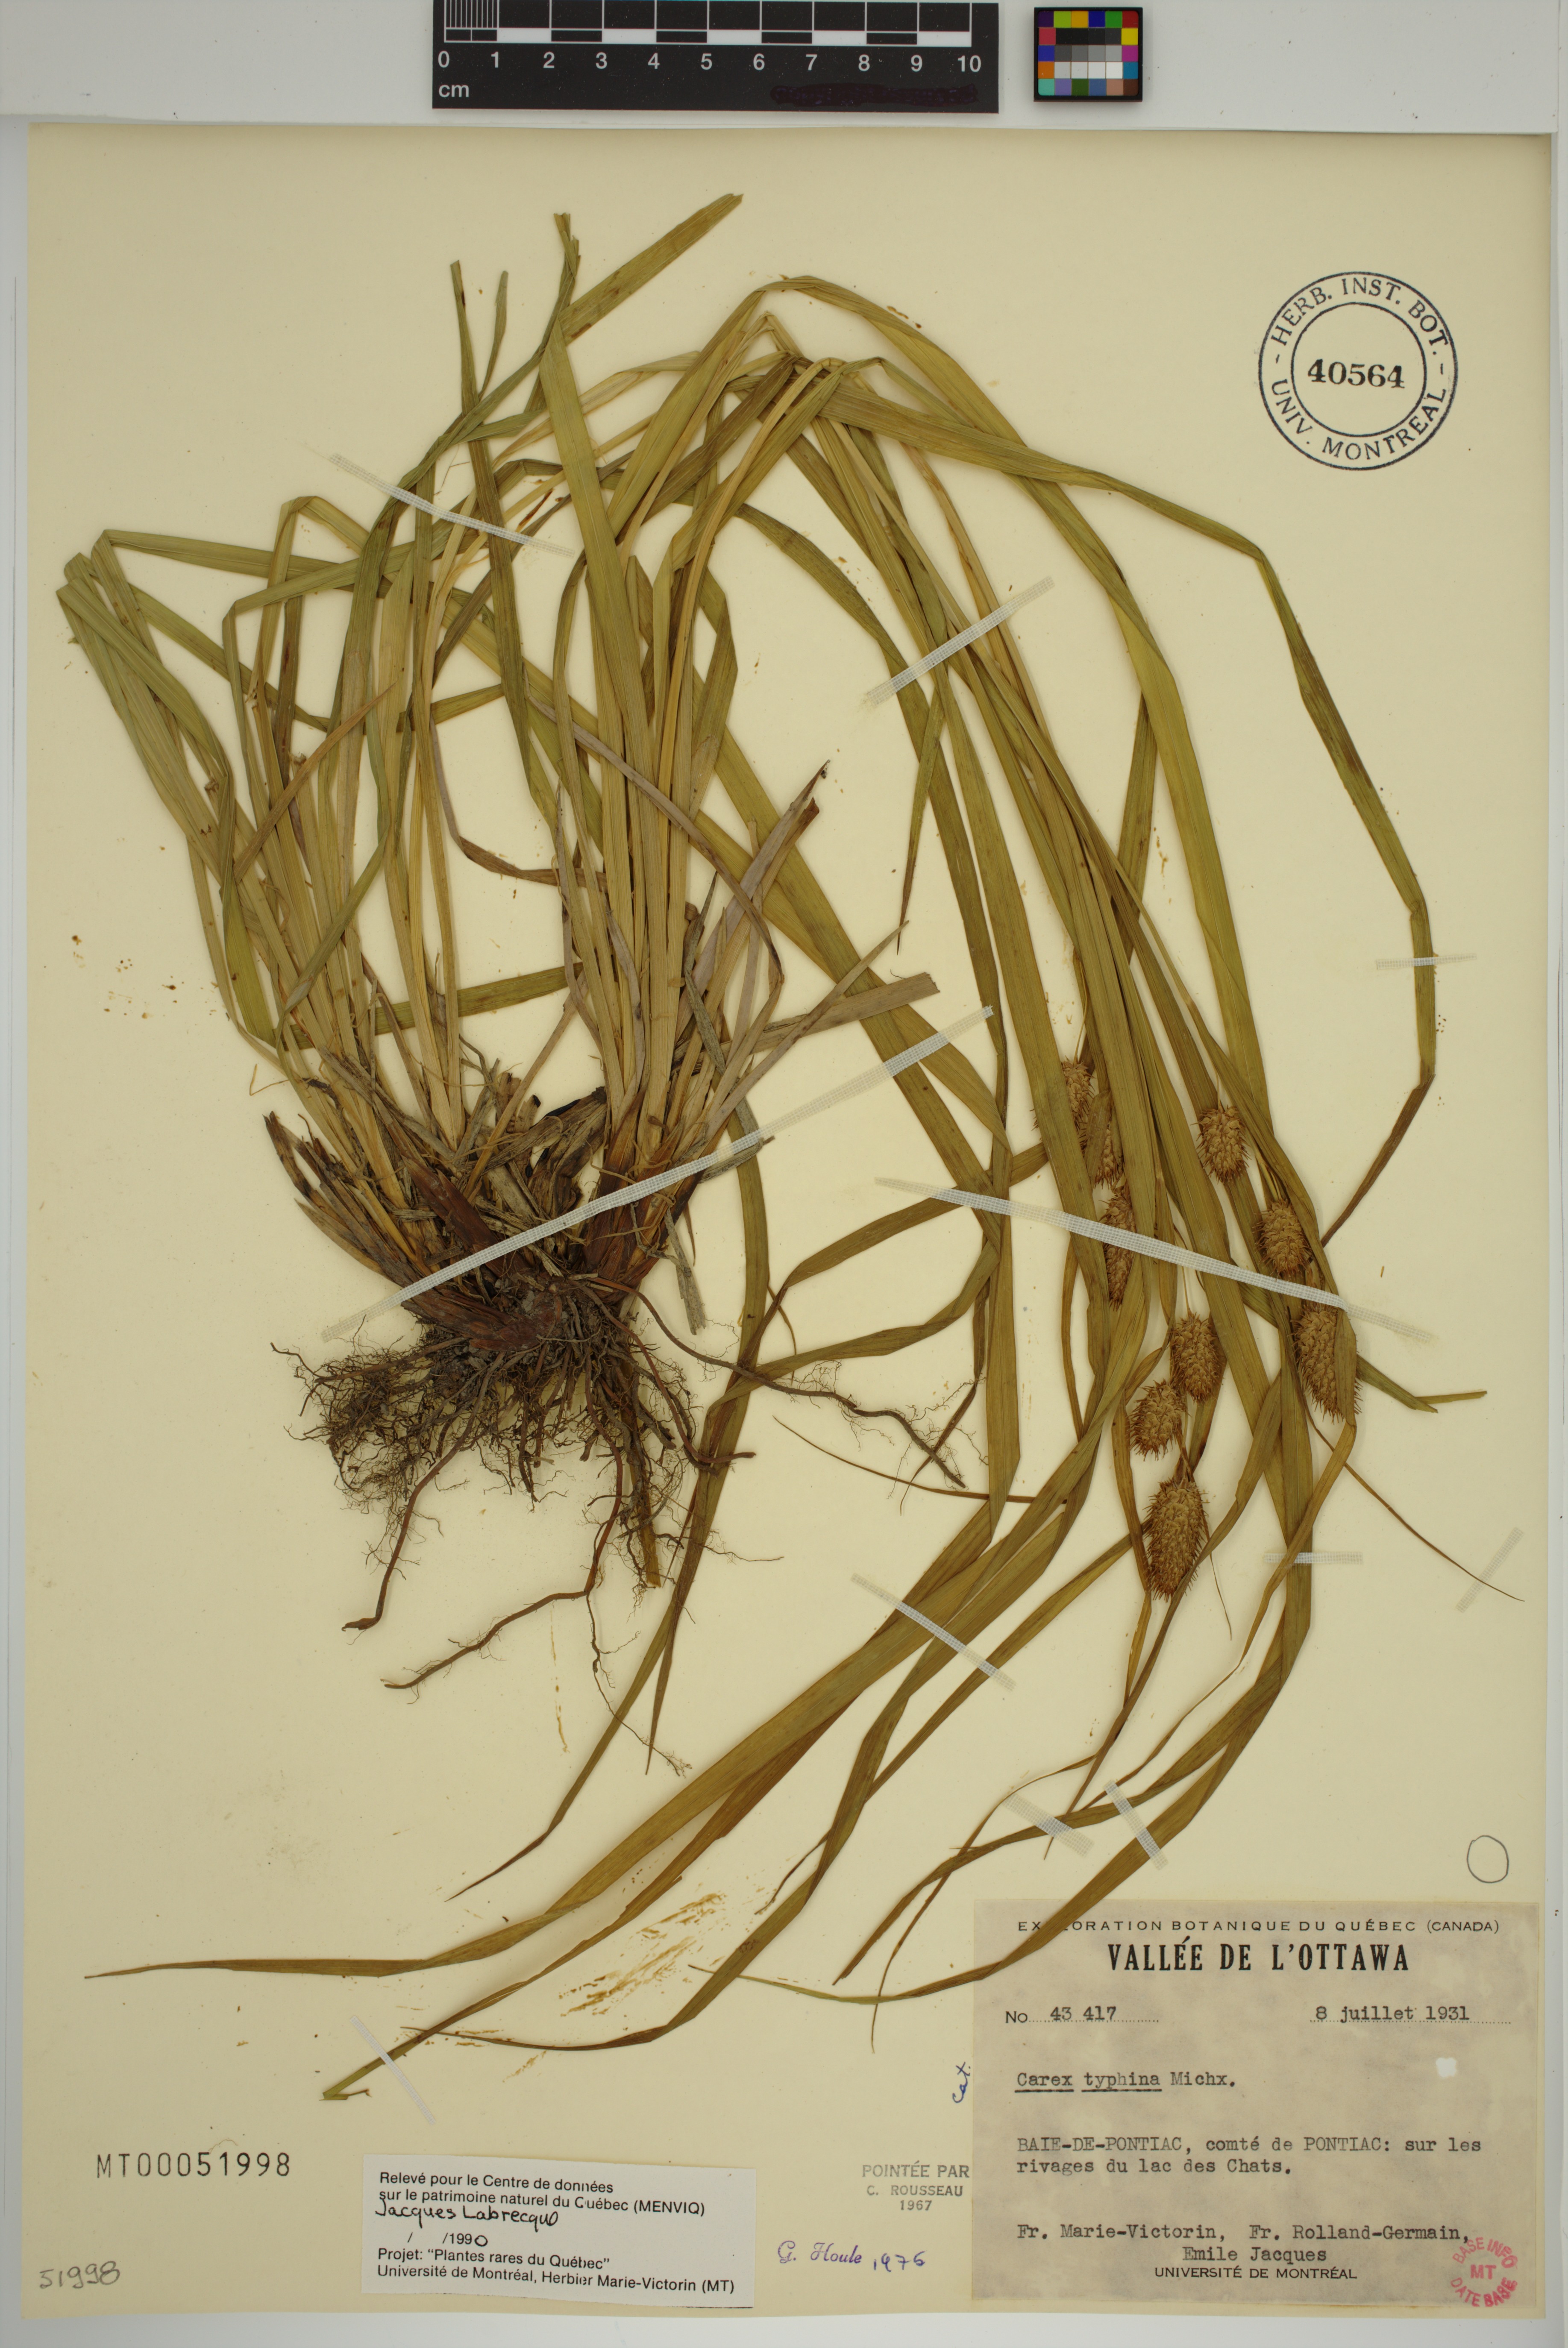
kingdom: Plantae
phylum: Tracheophyta
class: Liliopsida
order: Poales
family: Cyperaceae
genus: Carex
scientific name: Carex typhina
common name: Cattail sedge
